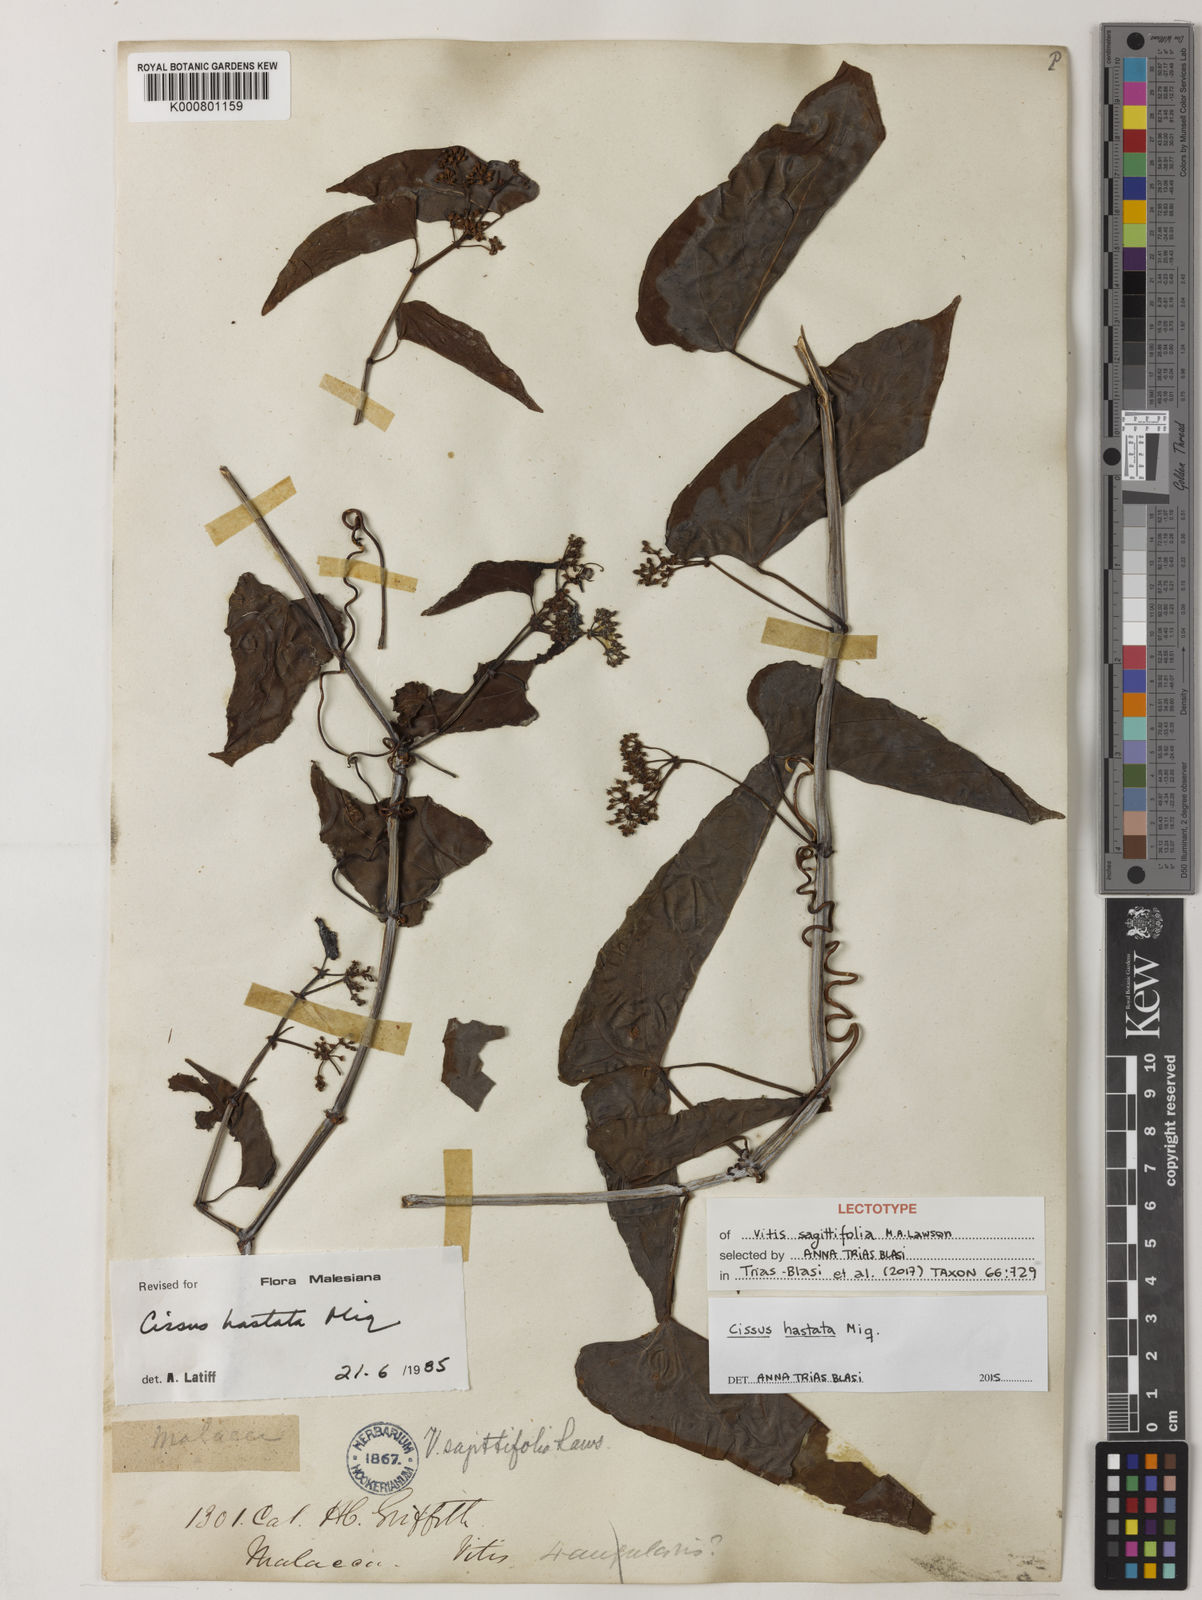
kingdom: Plantae
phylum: Tracheophyta
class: Magnoliopsida
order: Vitales
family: Vitaceae
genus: Cissus
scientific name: Cissus hastata
